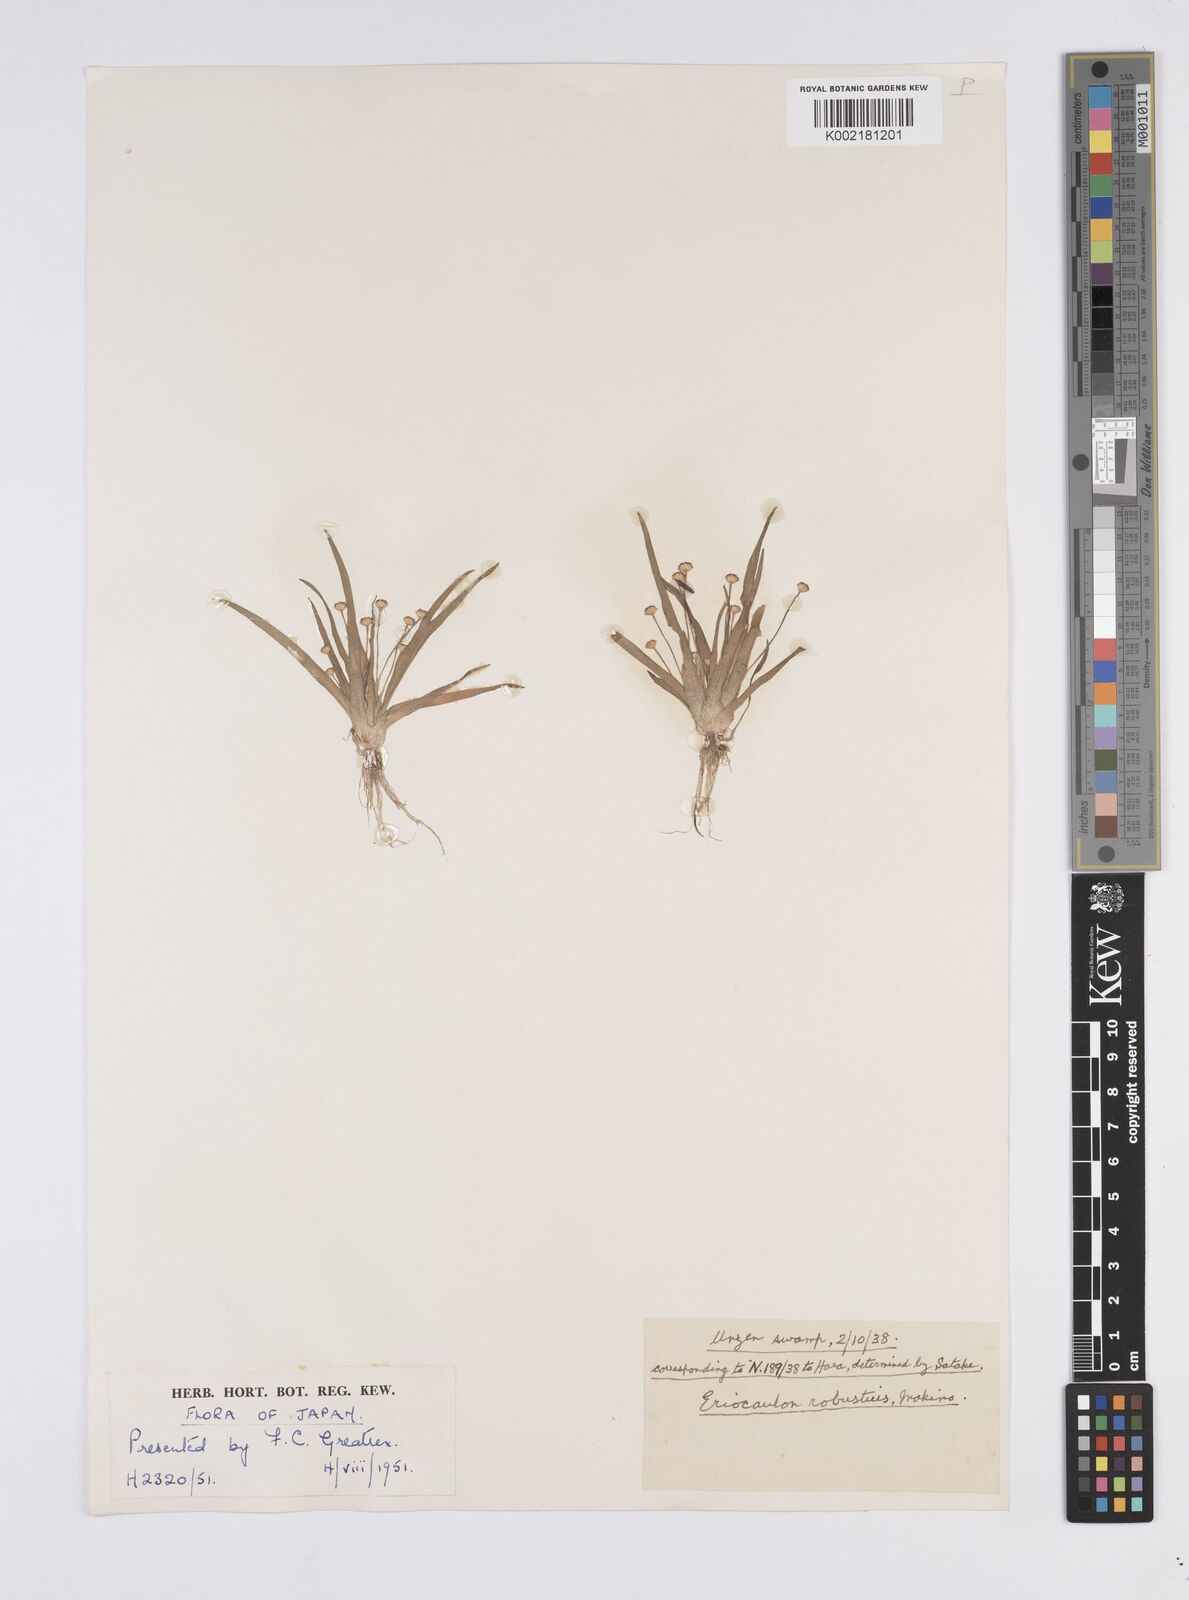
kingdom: Plantae
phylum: Tracheophyta
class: Liliopsida
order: Poales
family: Eriocaulaceae
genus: Eriocaulon
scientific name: Eriocaulon alpestre
